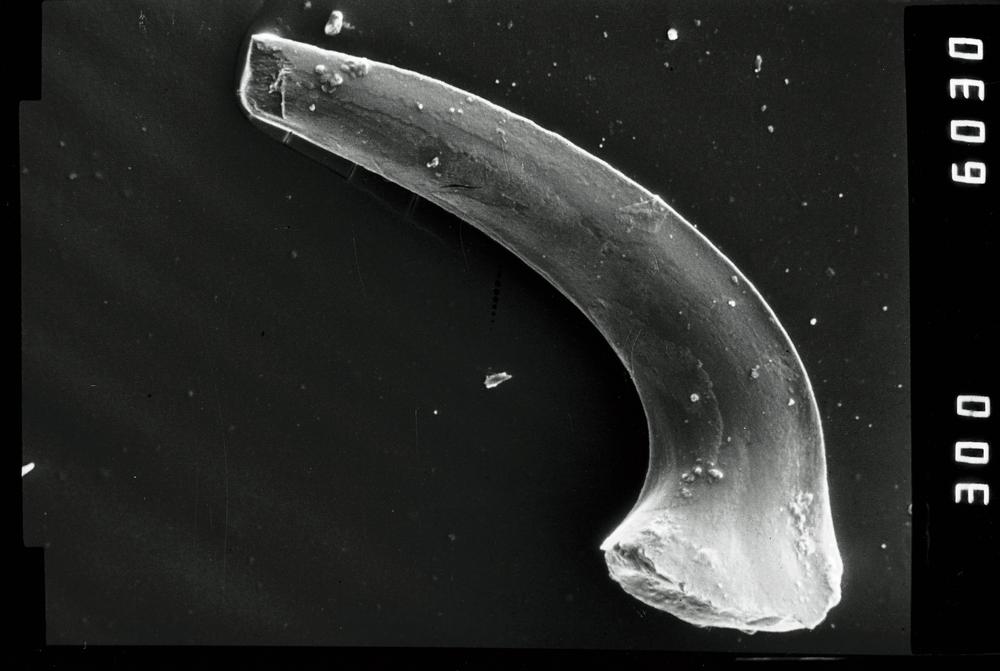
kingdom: Animalia
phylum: Chordata
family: Protopanderodontidae
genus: Eucharodus
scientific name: Eucharodus
